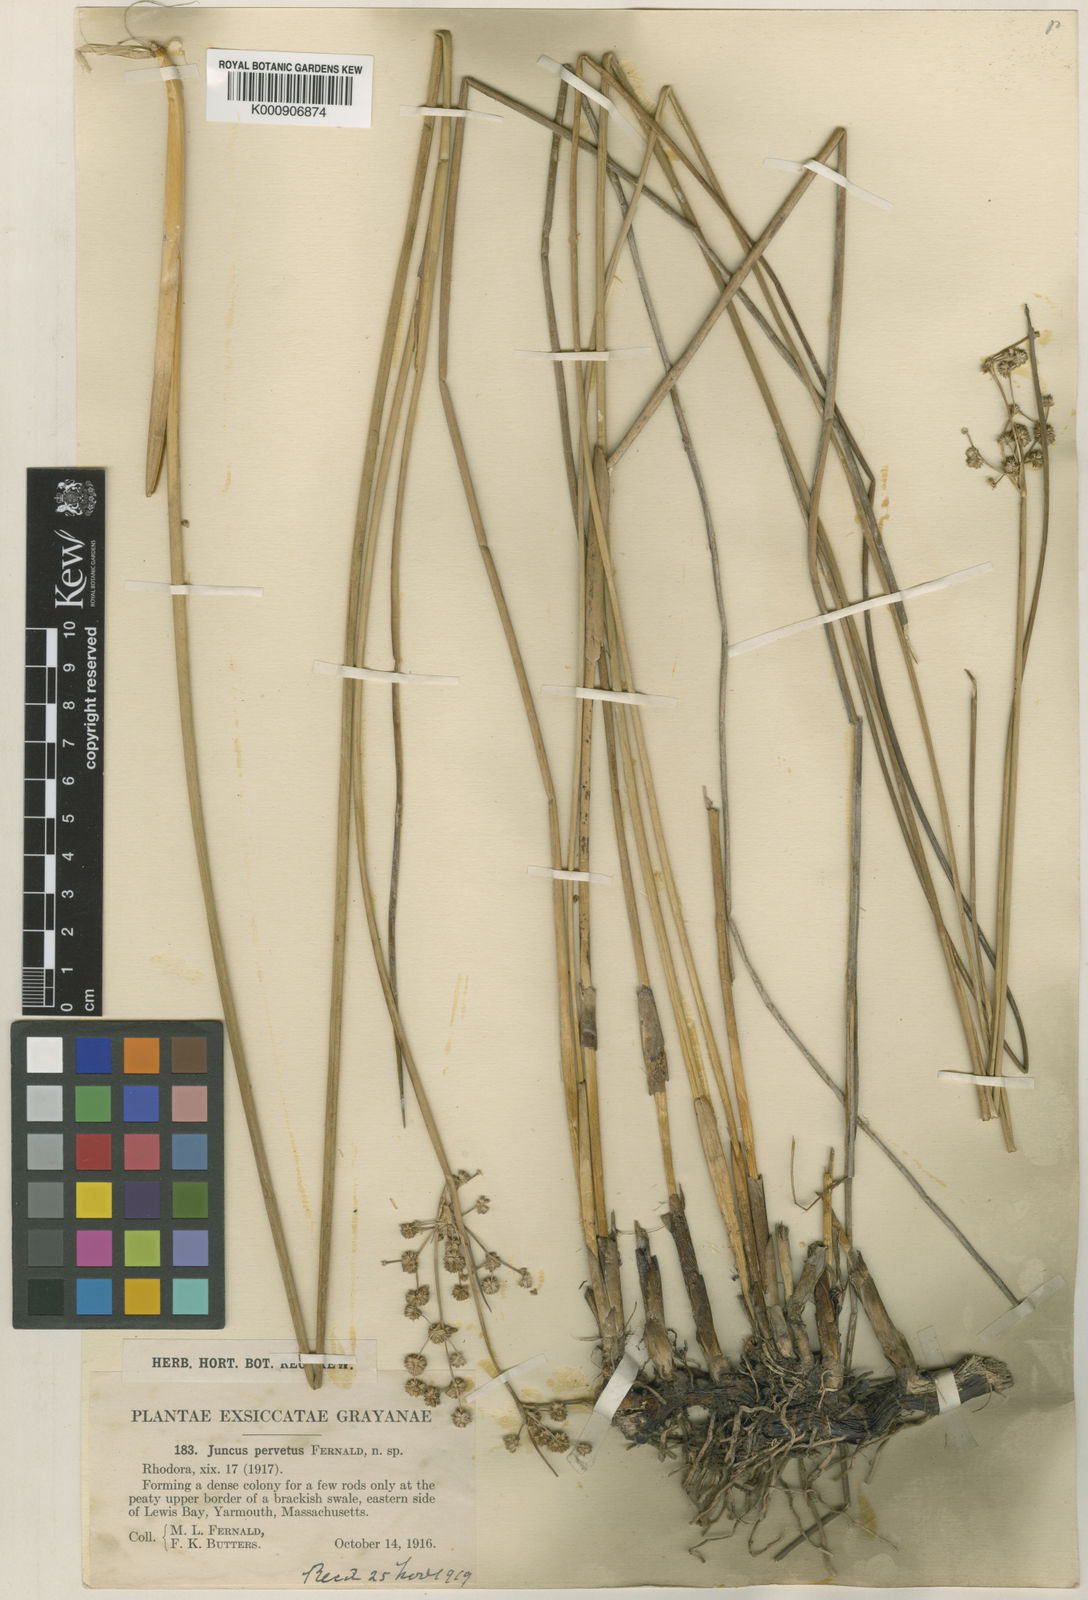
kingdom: Plantae
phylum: Tracheophyta
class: Liliopsida
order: Poales
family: Juncaceae
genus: Juncus
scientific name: Juncus subnodulosus
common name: Blunt-flowered rush
